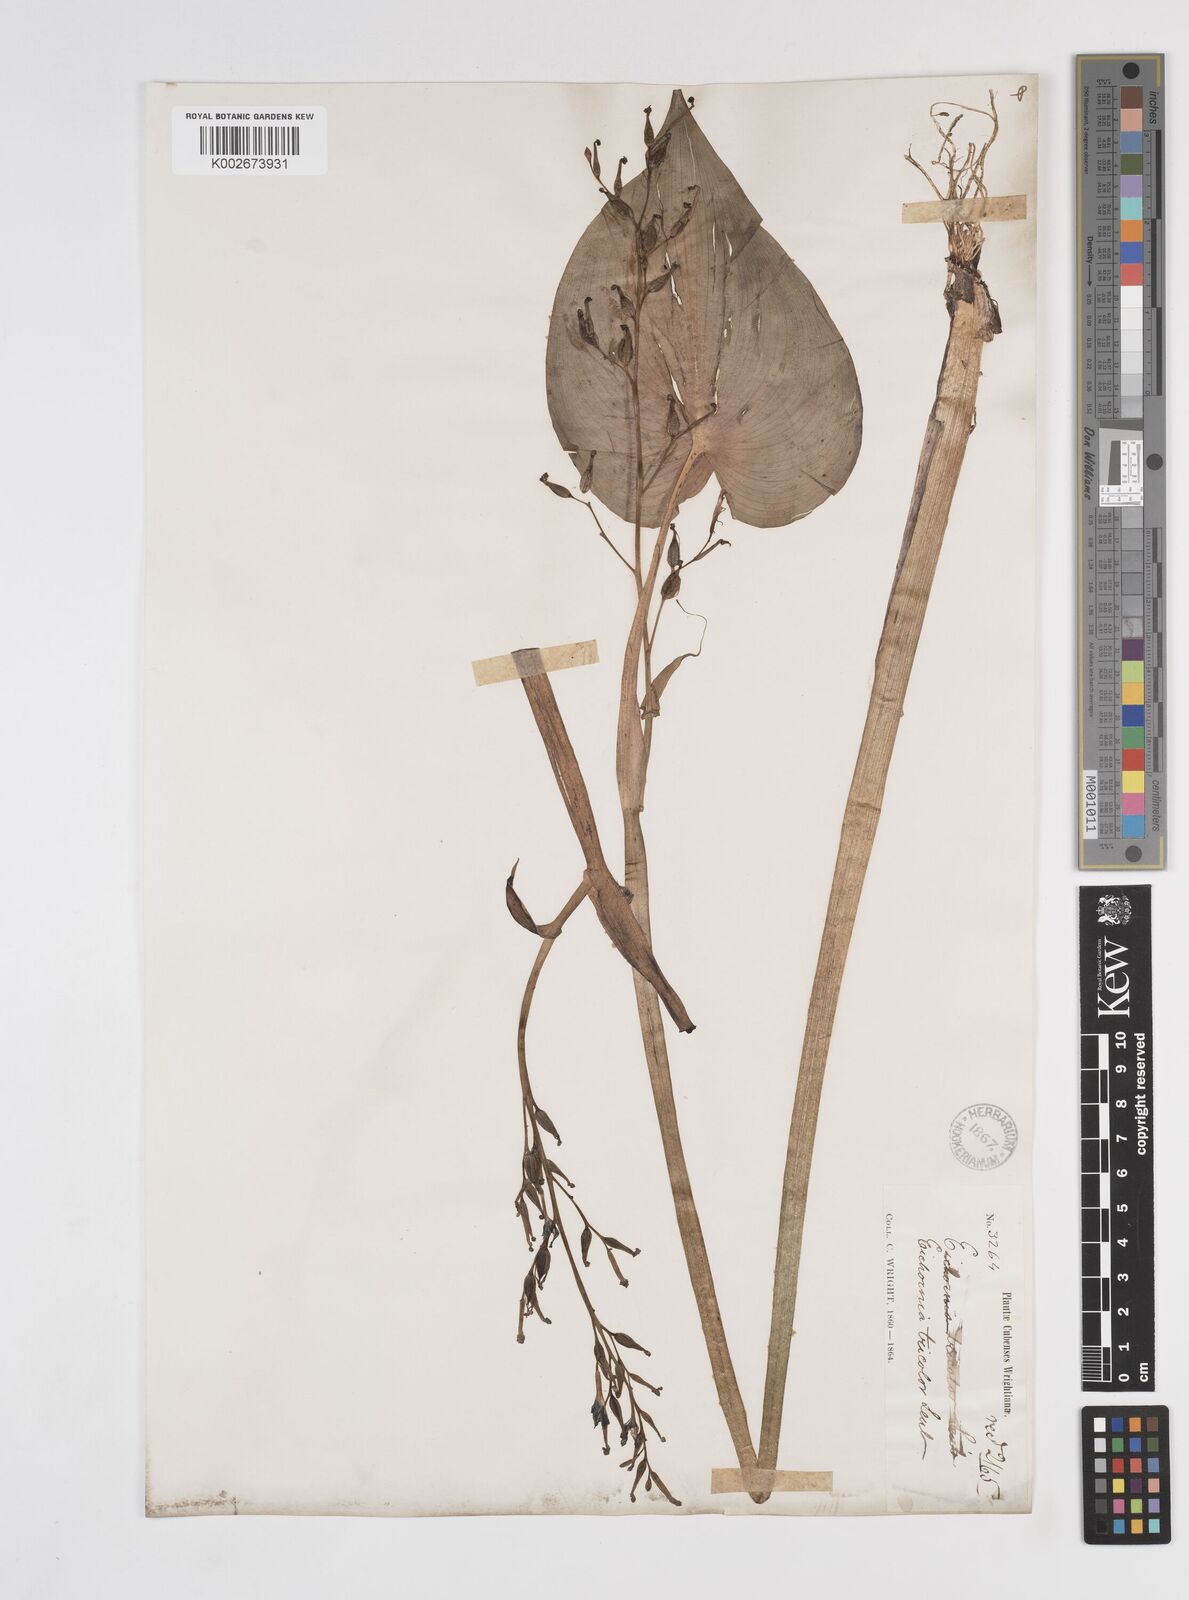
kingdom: Plantae
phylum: Tracheophyta
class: Liliopsida
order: Commelinales
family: Pontederiaceae
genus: Pontederia
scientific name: Pontederia paniculata
